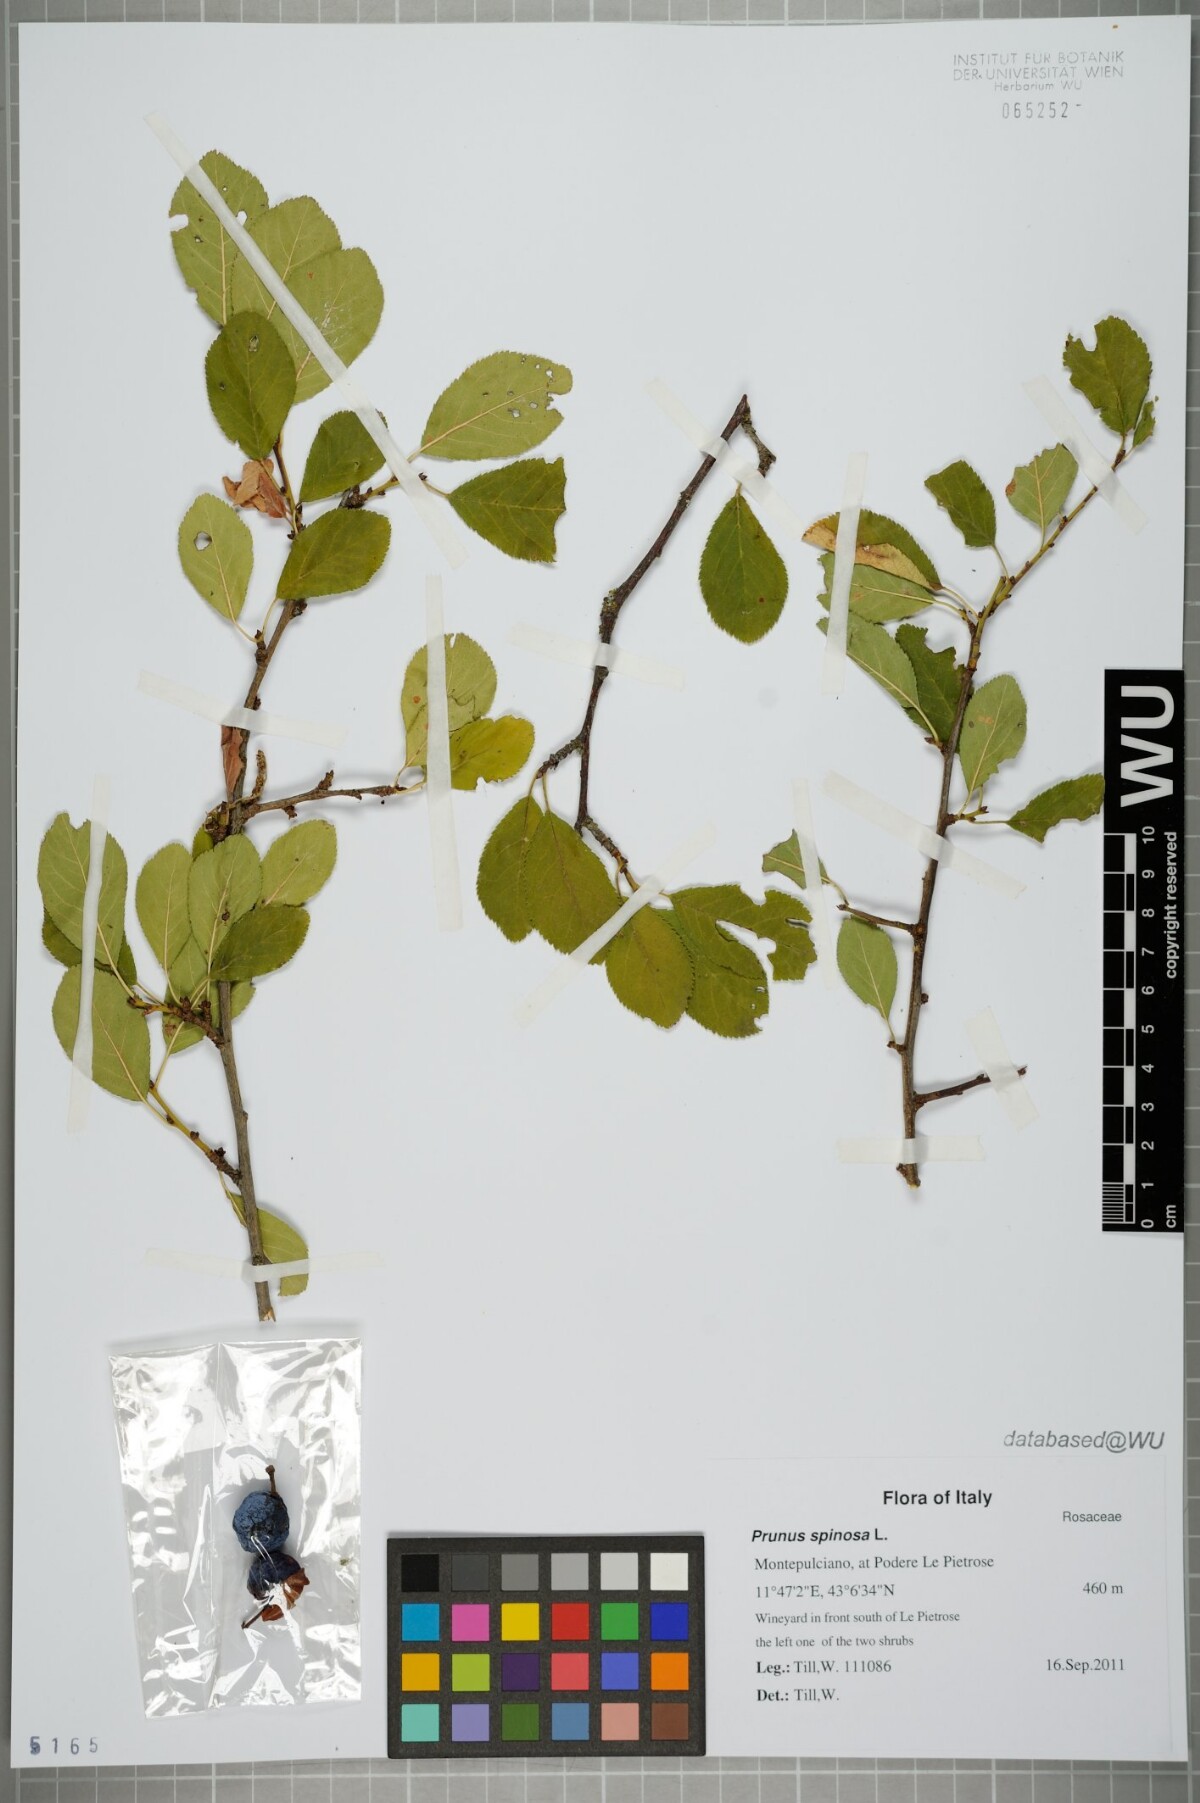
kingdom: Plantae
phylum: Tracheophyta
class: Magnoliopsida
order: Rosales
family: Rosaceae
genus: Prunus
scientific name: Prunus spinosa
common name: Blackthorn
